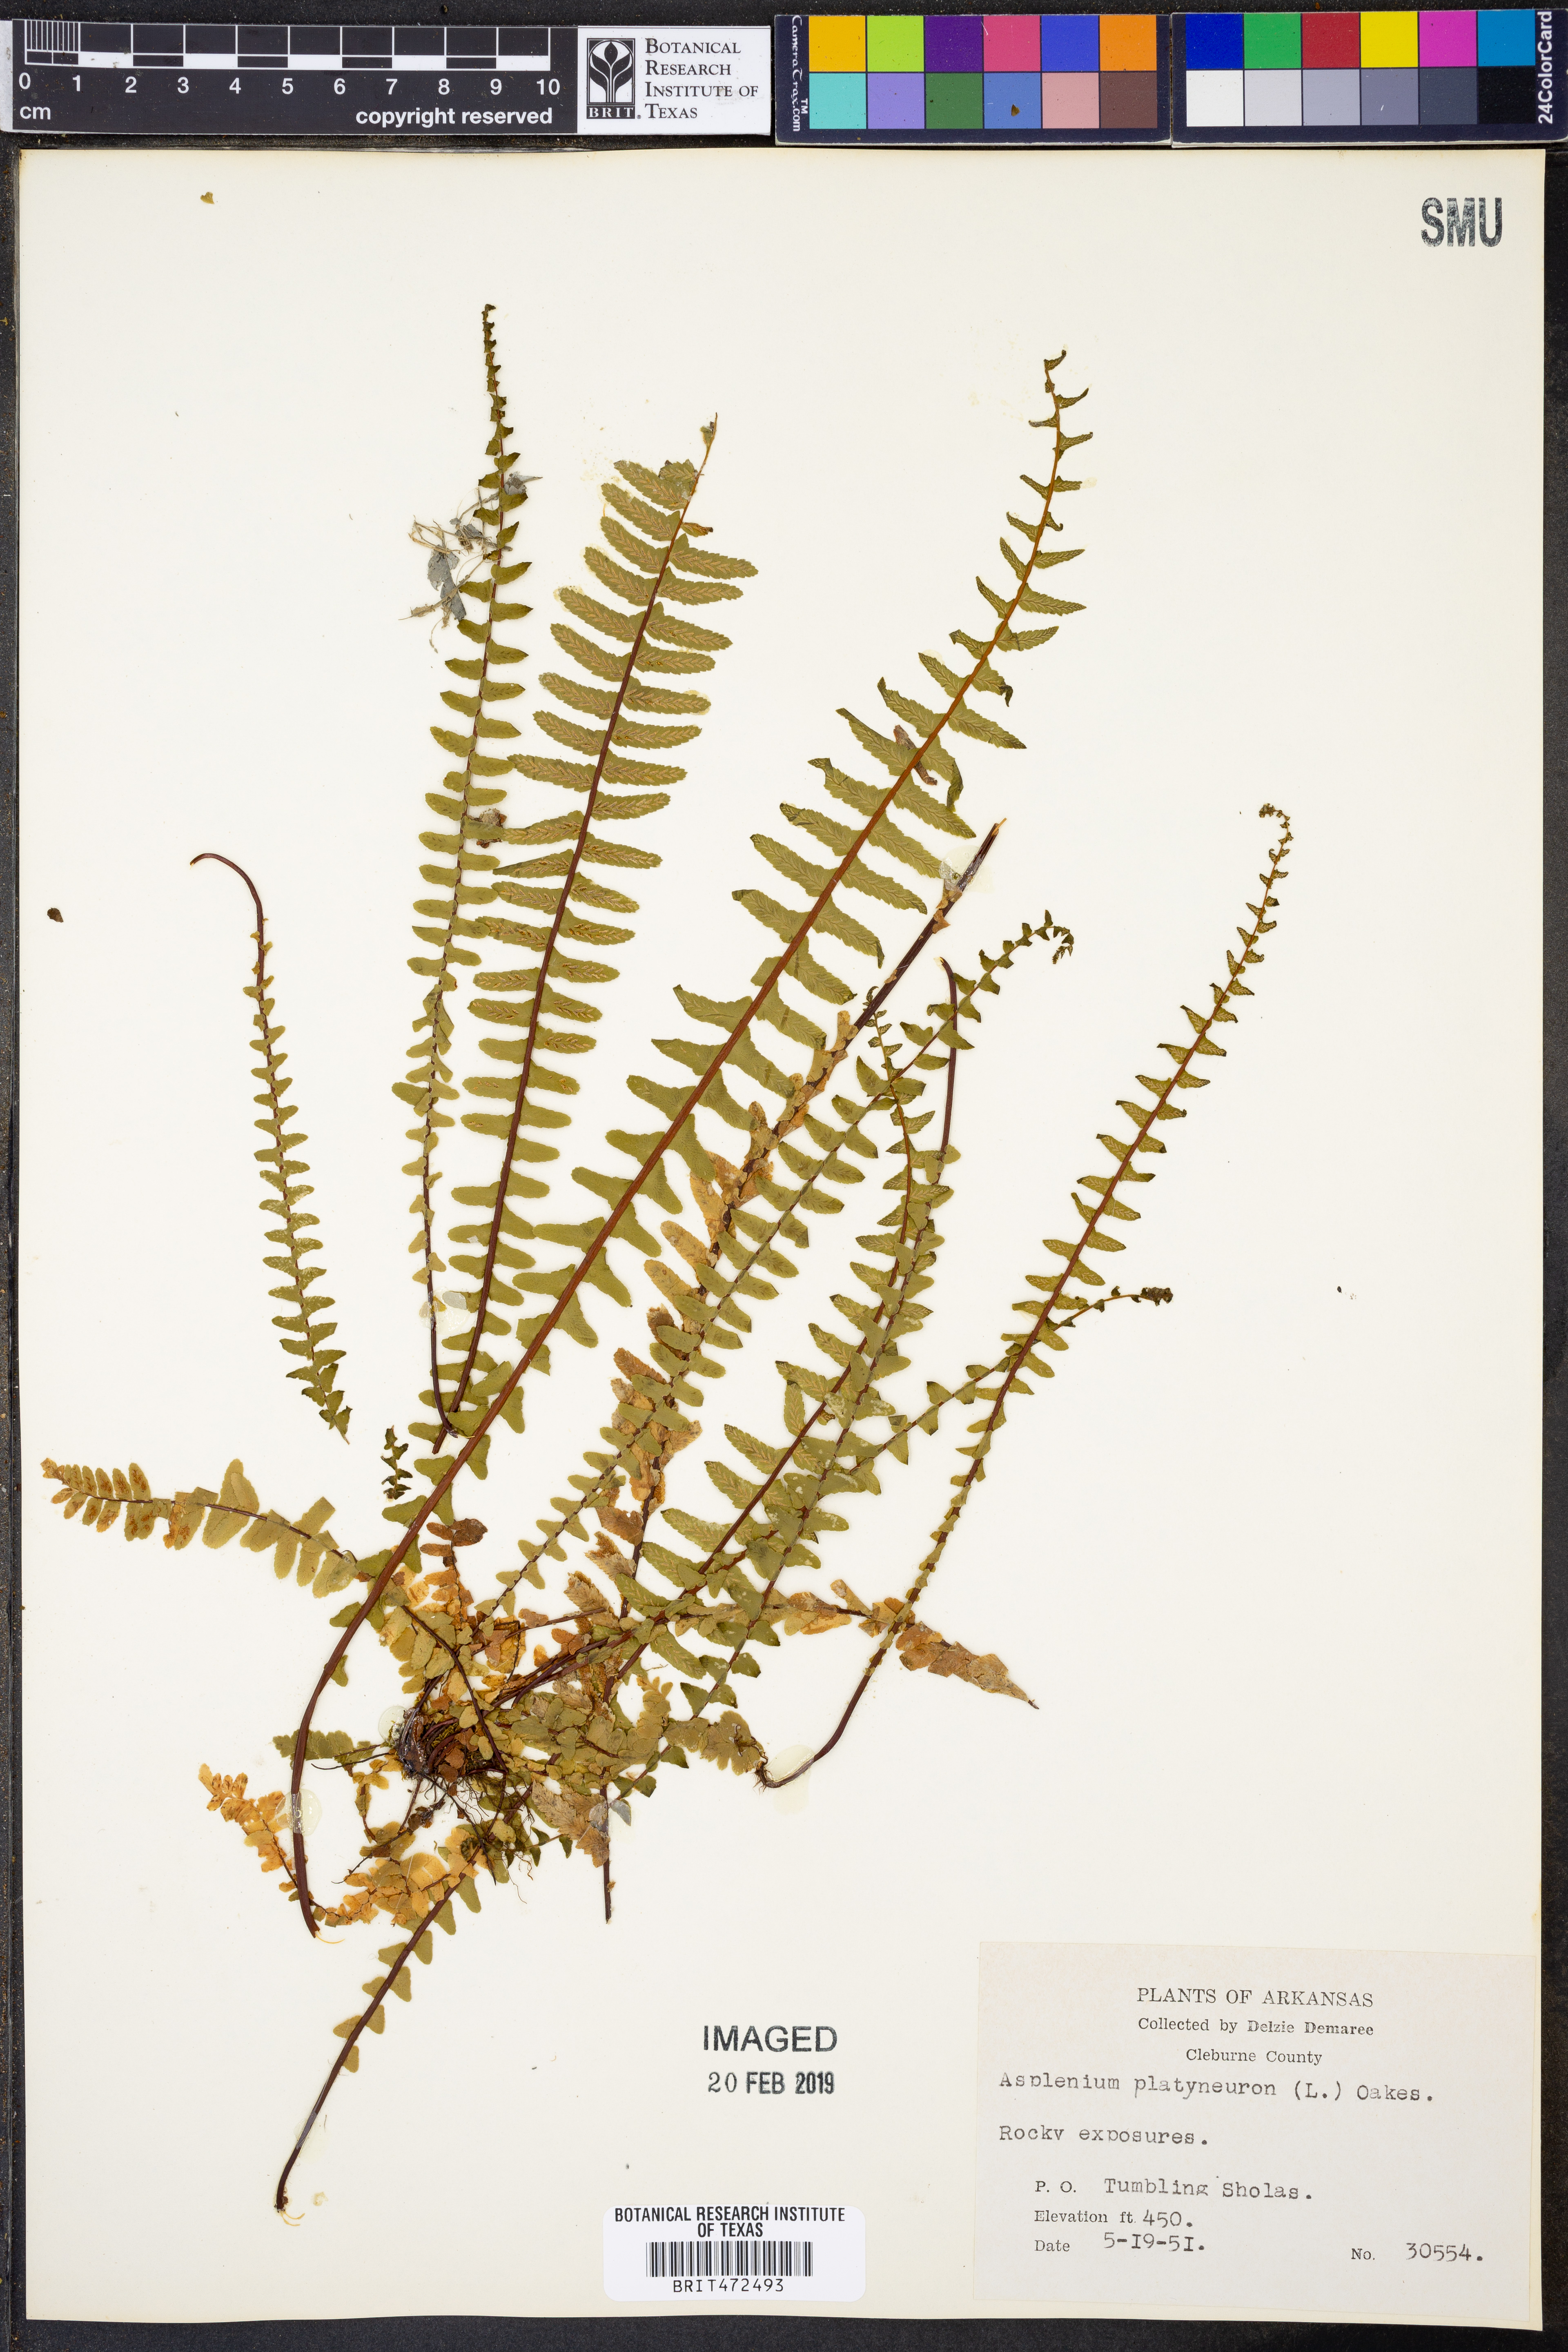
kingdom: Plantae
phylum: Tracheophyta
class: Polypodiopsida
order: Polypodiales
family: Aspleniaceae
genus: Asplenium
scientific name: Asplenium platyneuron
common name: Ebony spleenwort
